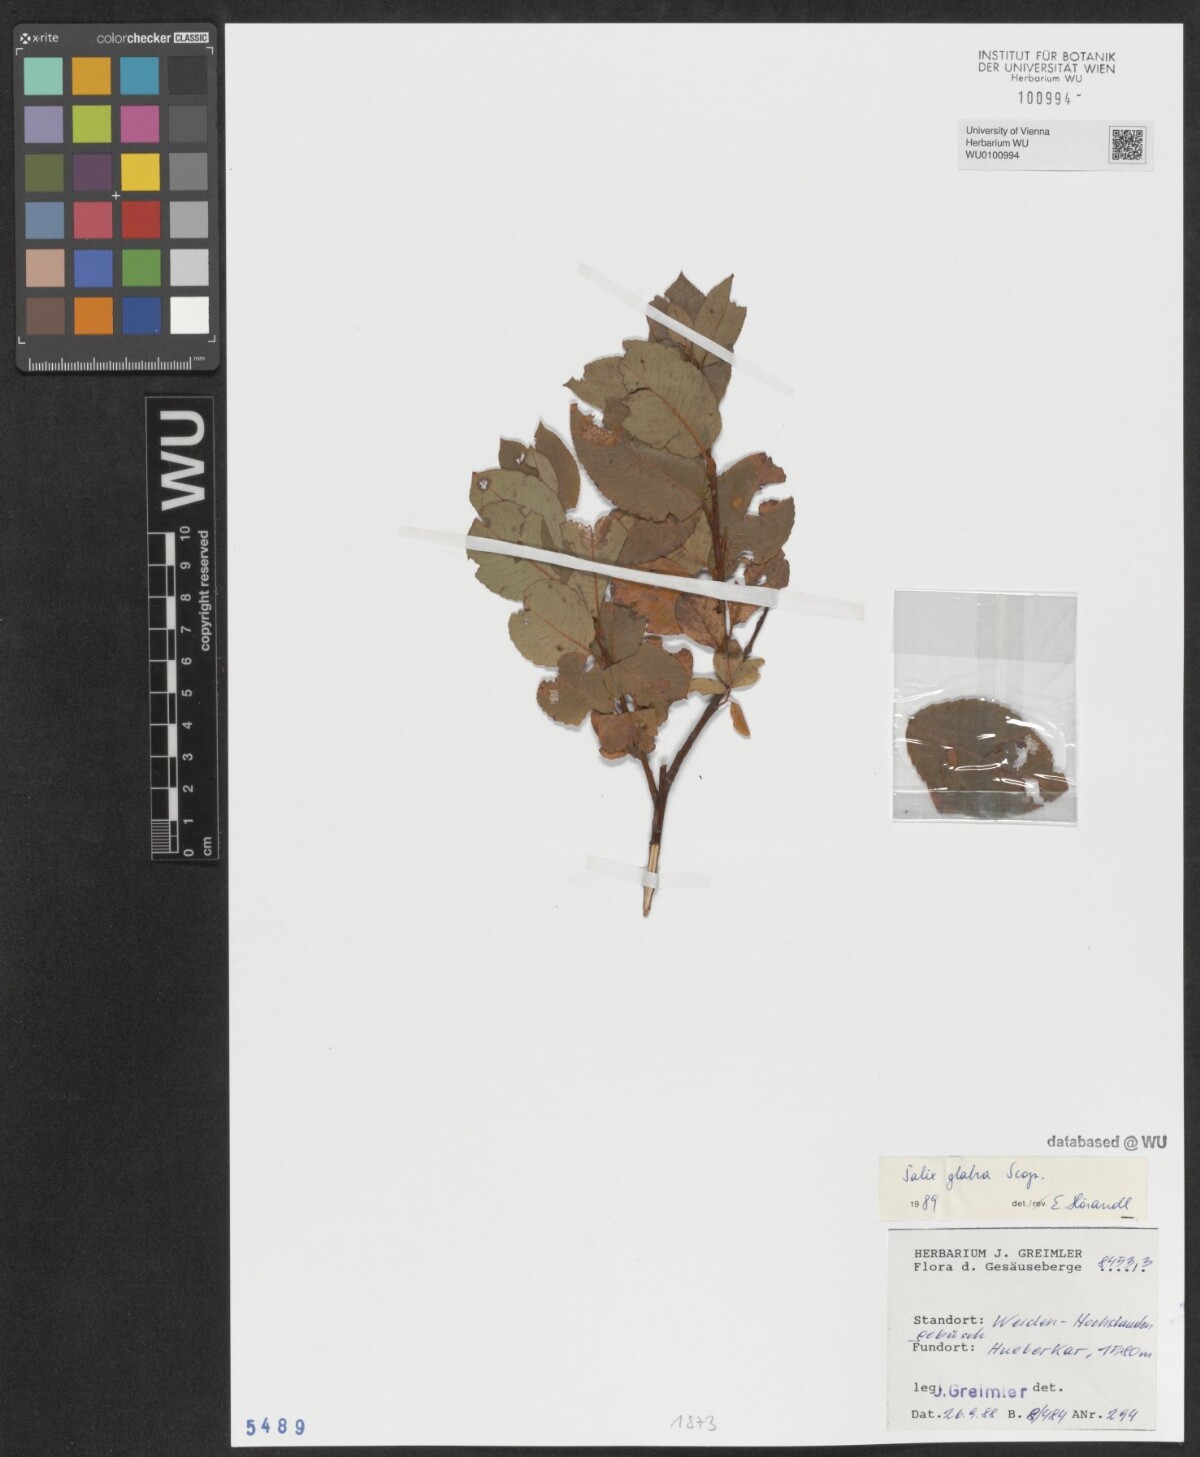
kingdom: Plantae
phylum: Tracheophyta
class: Magnoliopsida
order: Malpighiales
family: Salicaceae
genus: Salix
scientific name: Salix glabra
